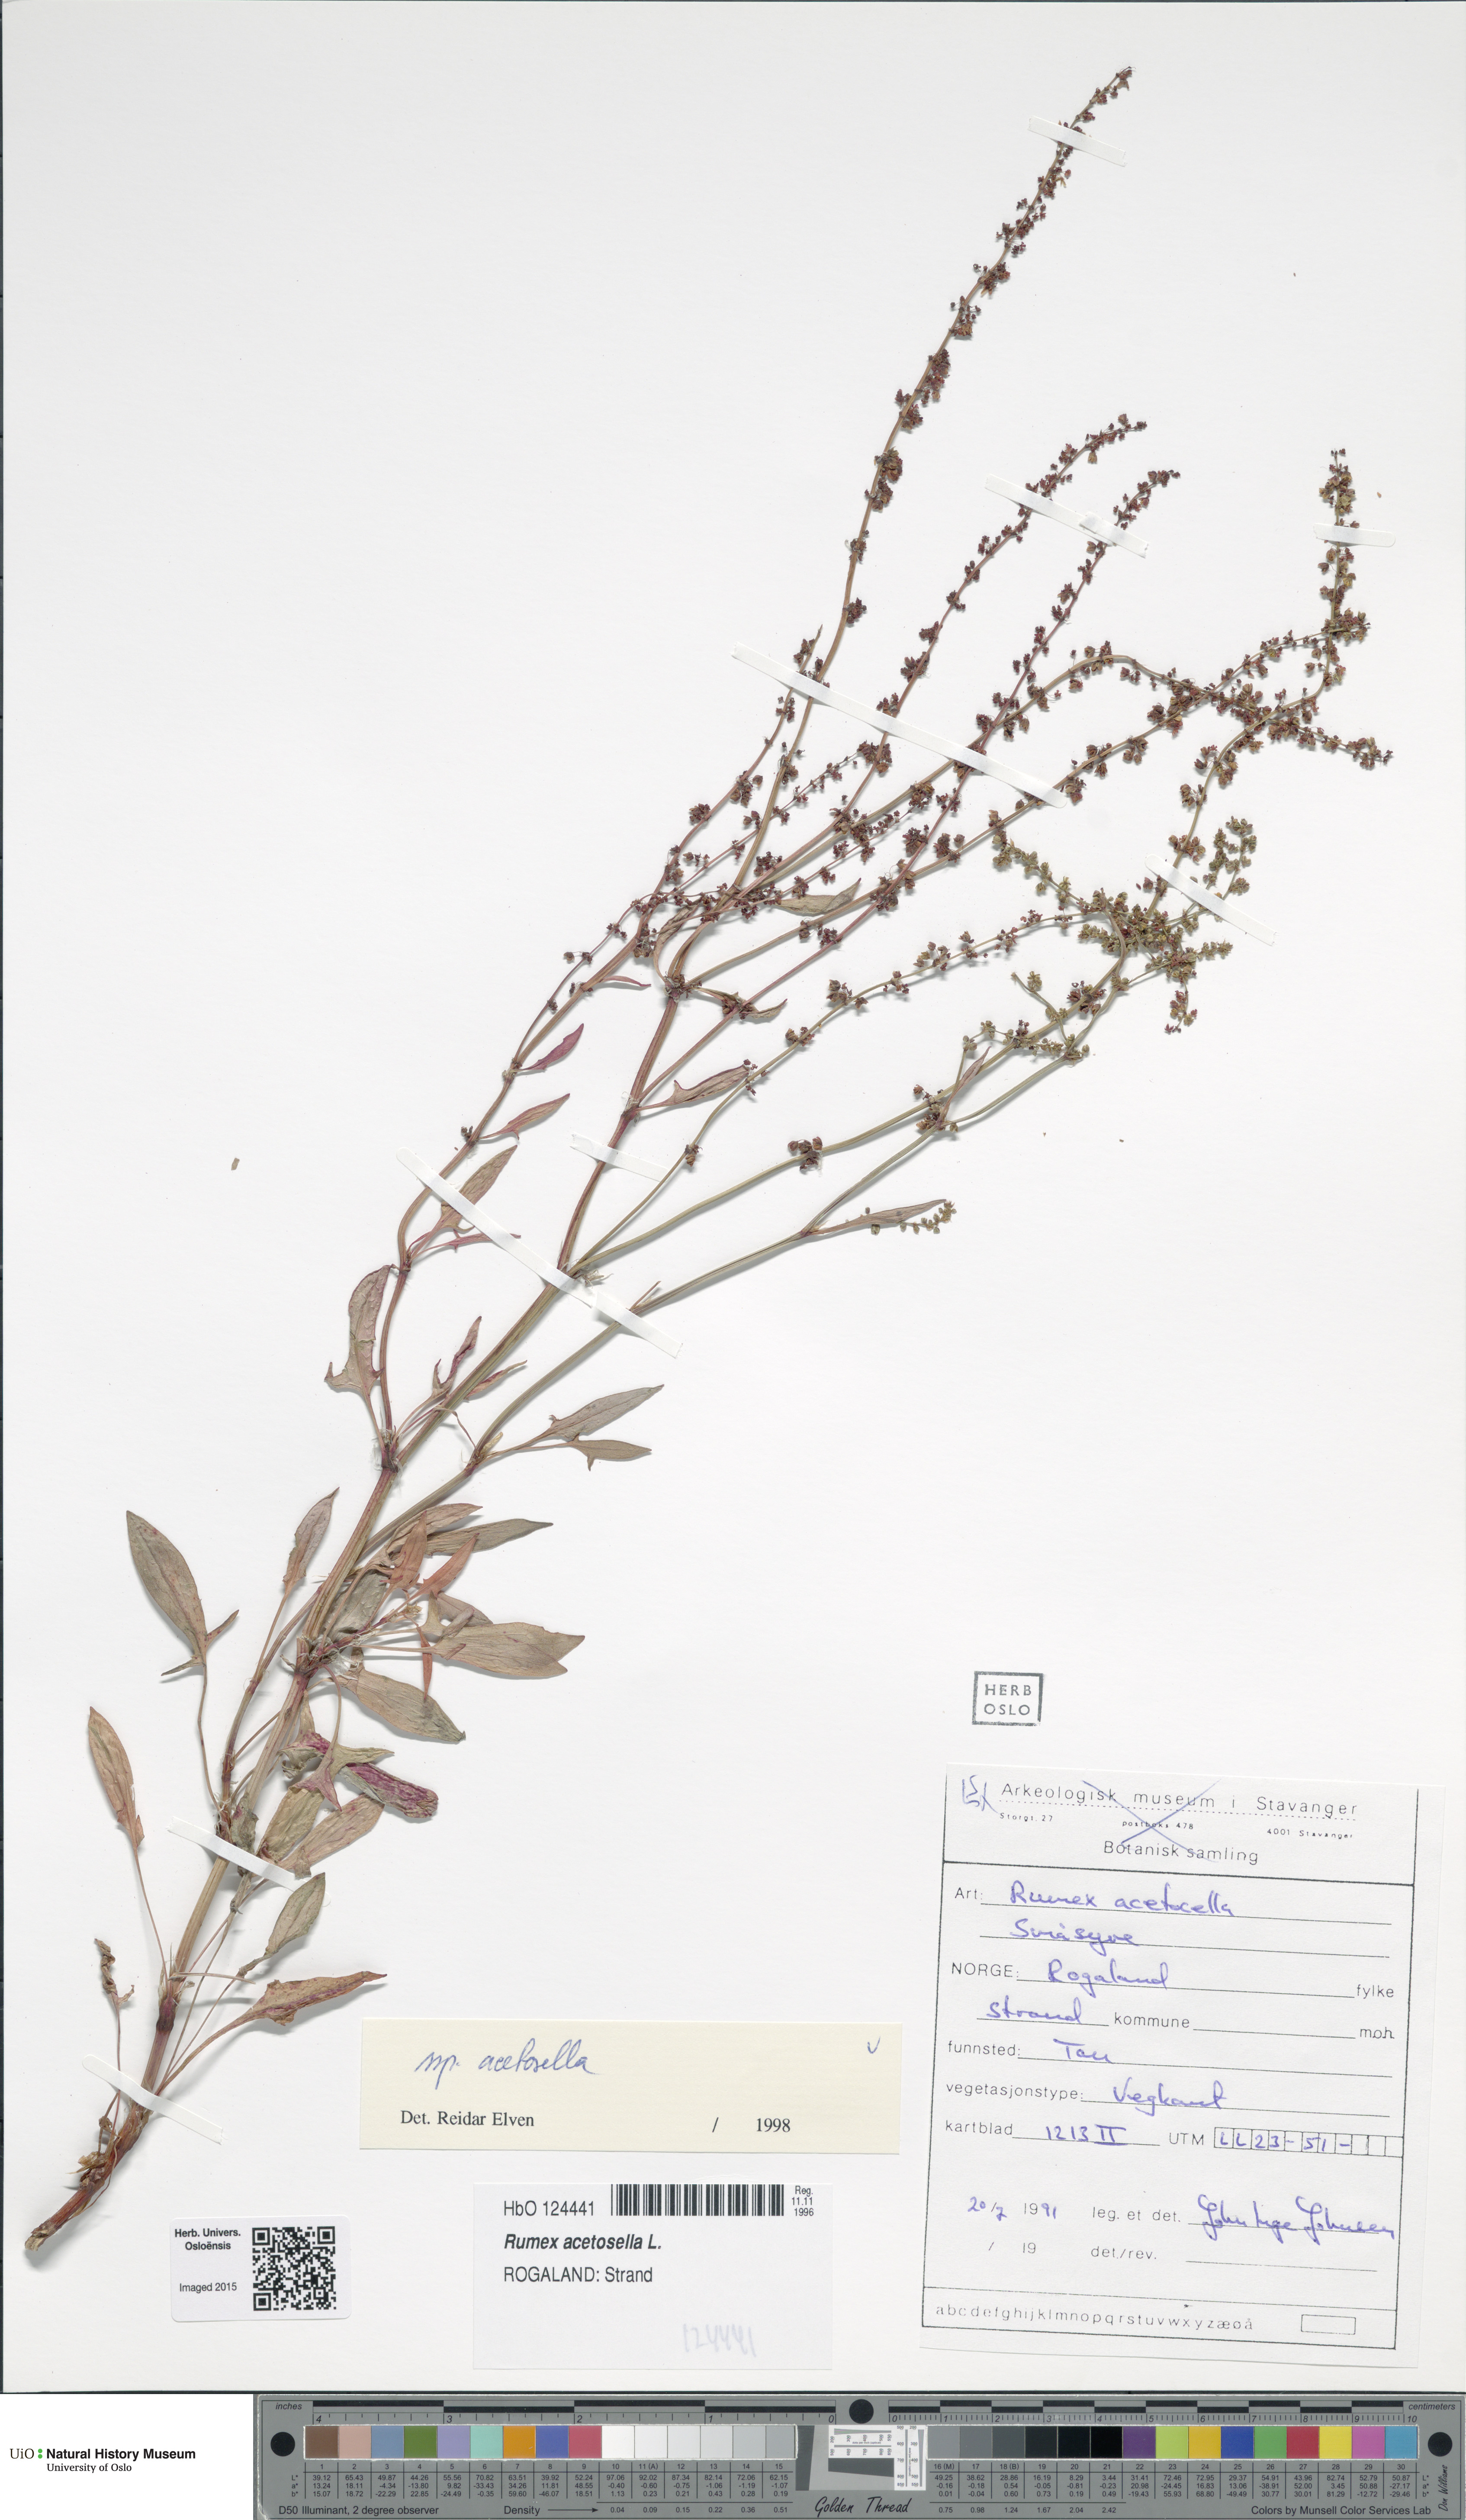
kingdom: Plantae
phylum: Tracheophyta
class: Magnoliopsida
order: Caryophyllales
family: Polygonaceae
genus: Rumex
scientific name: Rumex acetosella
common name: Common sheep sorrel
